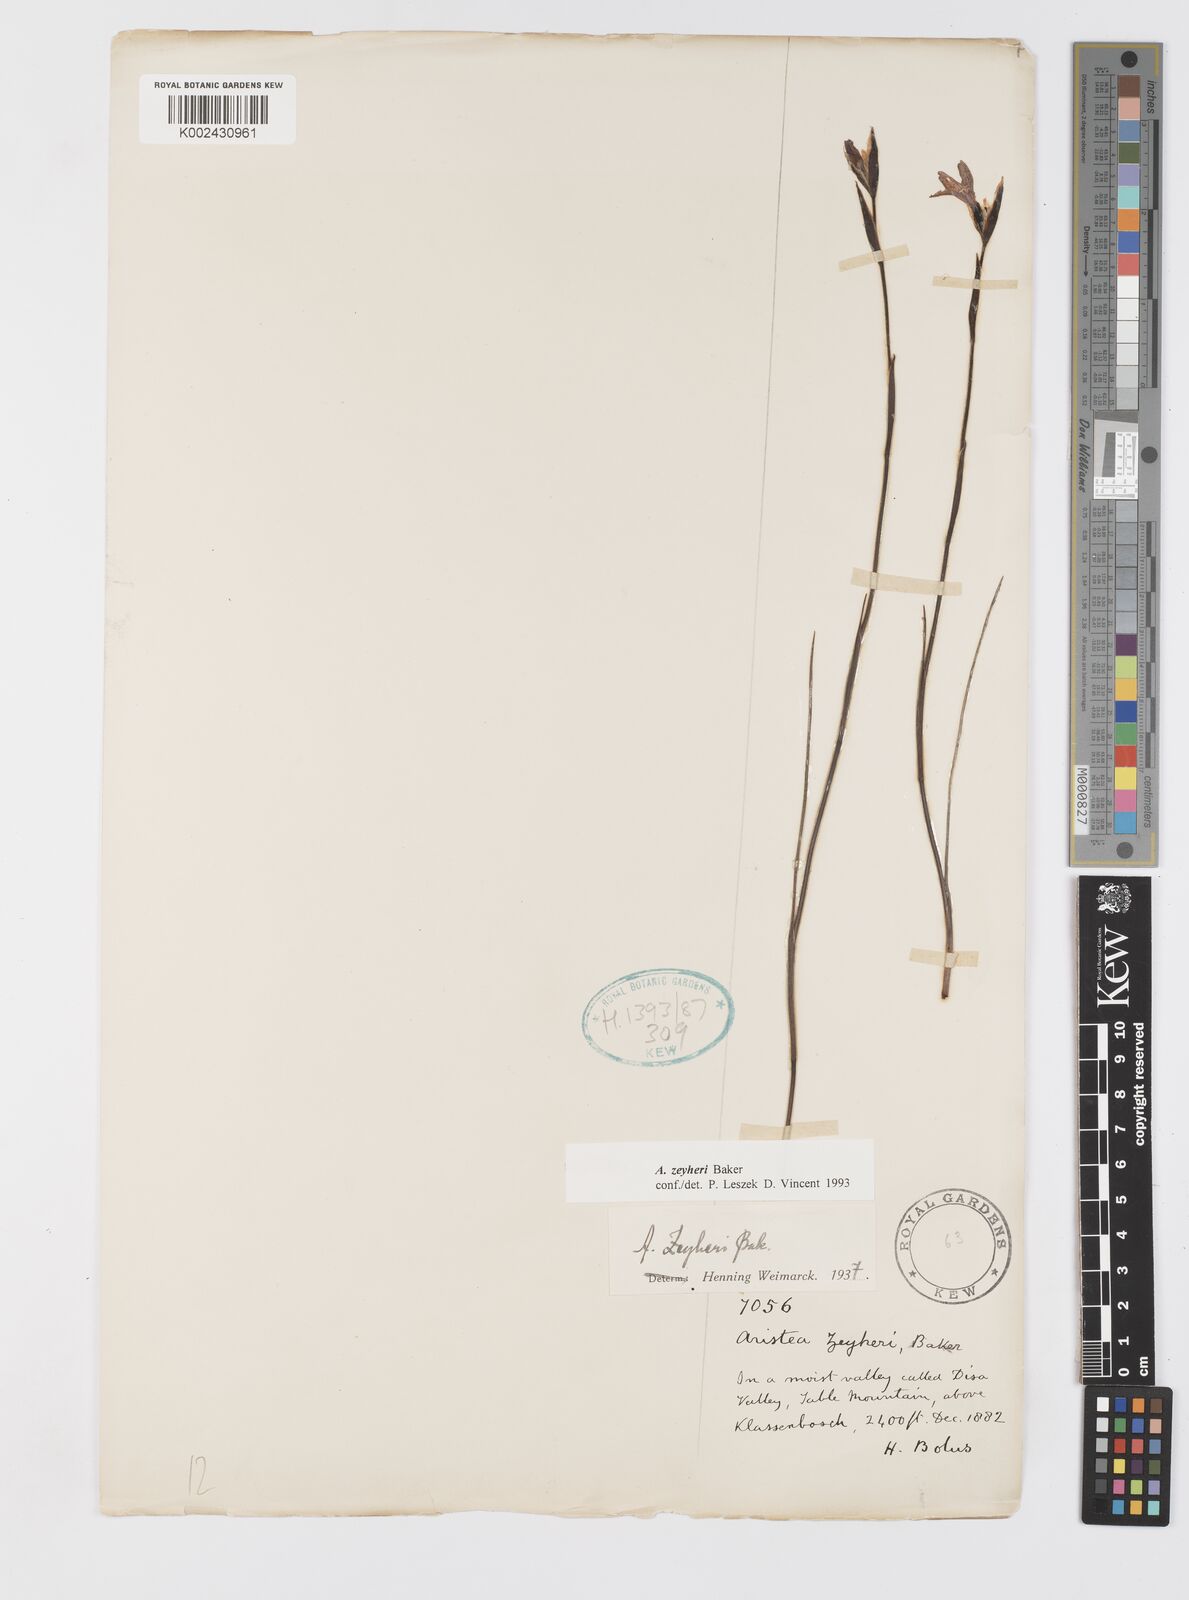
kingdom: Plantae
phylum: Tracheophyta
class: Liliopsida
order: Asparagales
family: Iridaceae
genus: Aristea
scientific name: Aristea zeyheri
